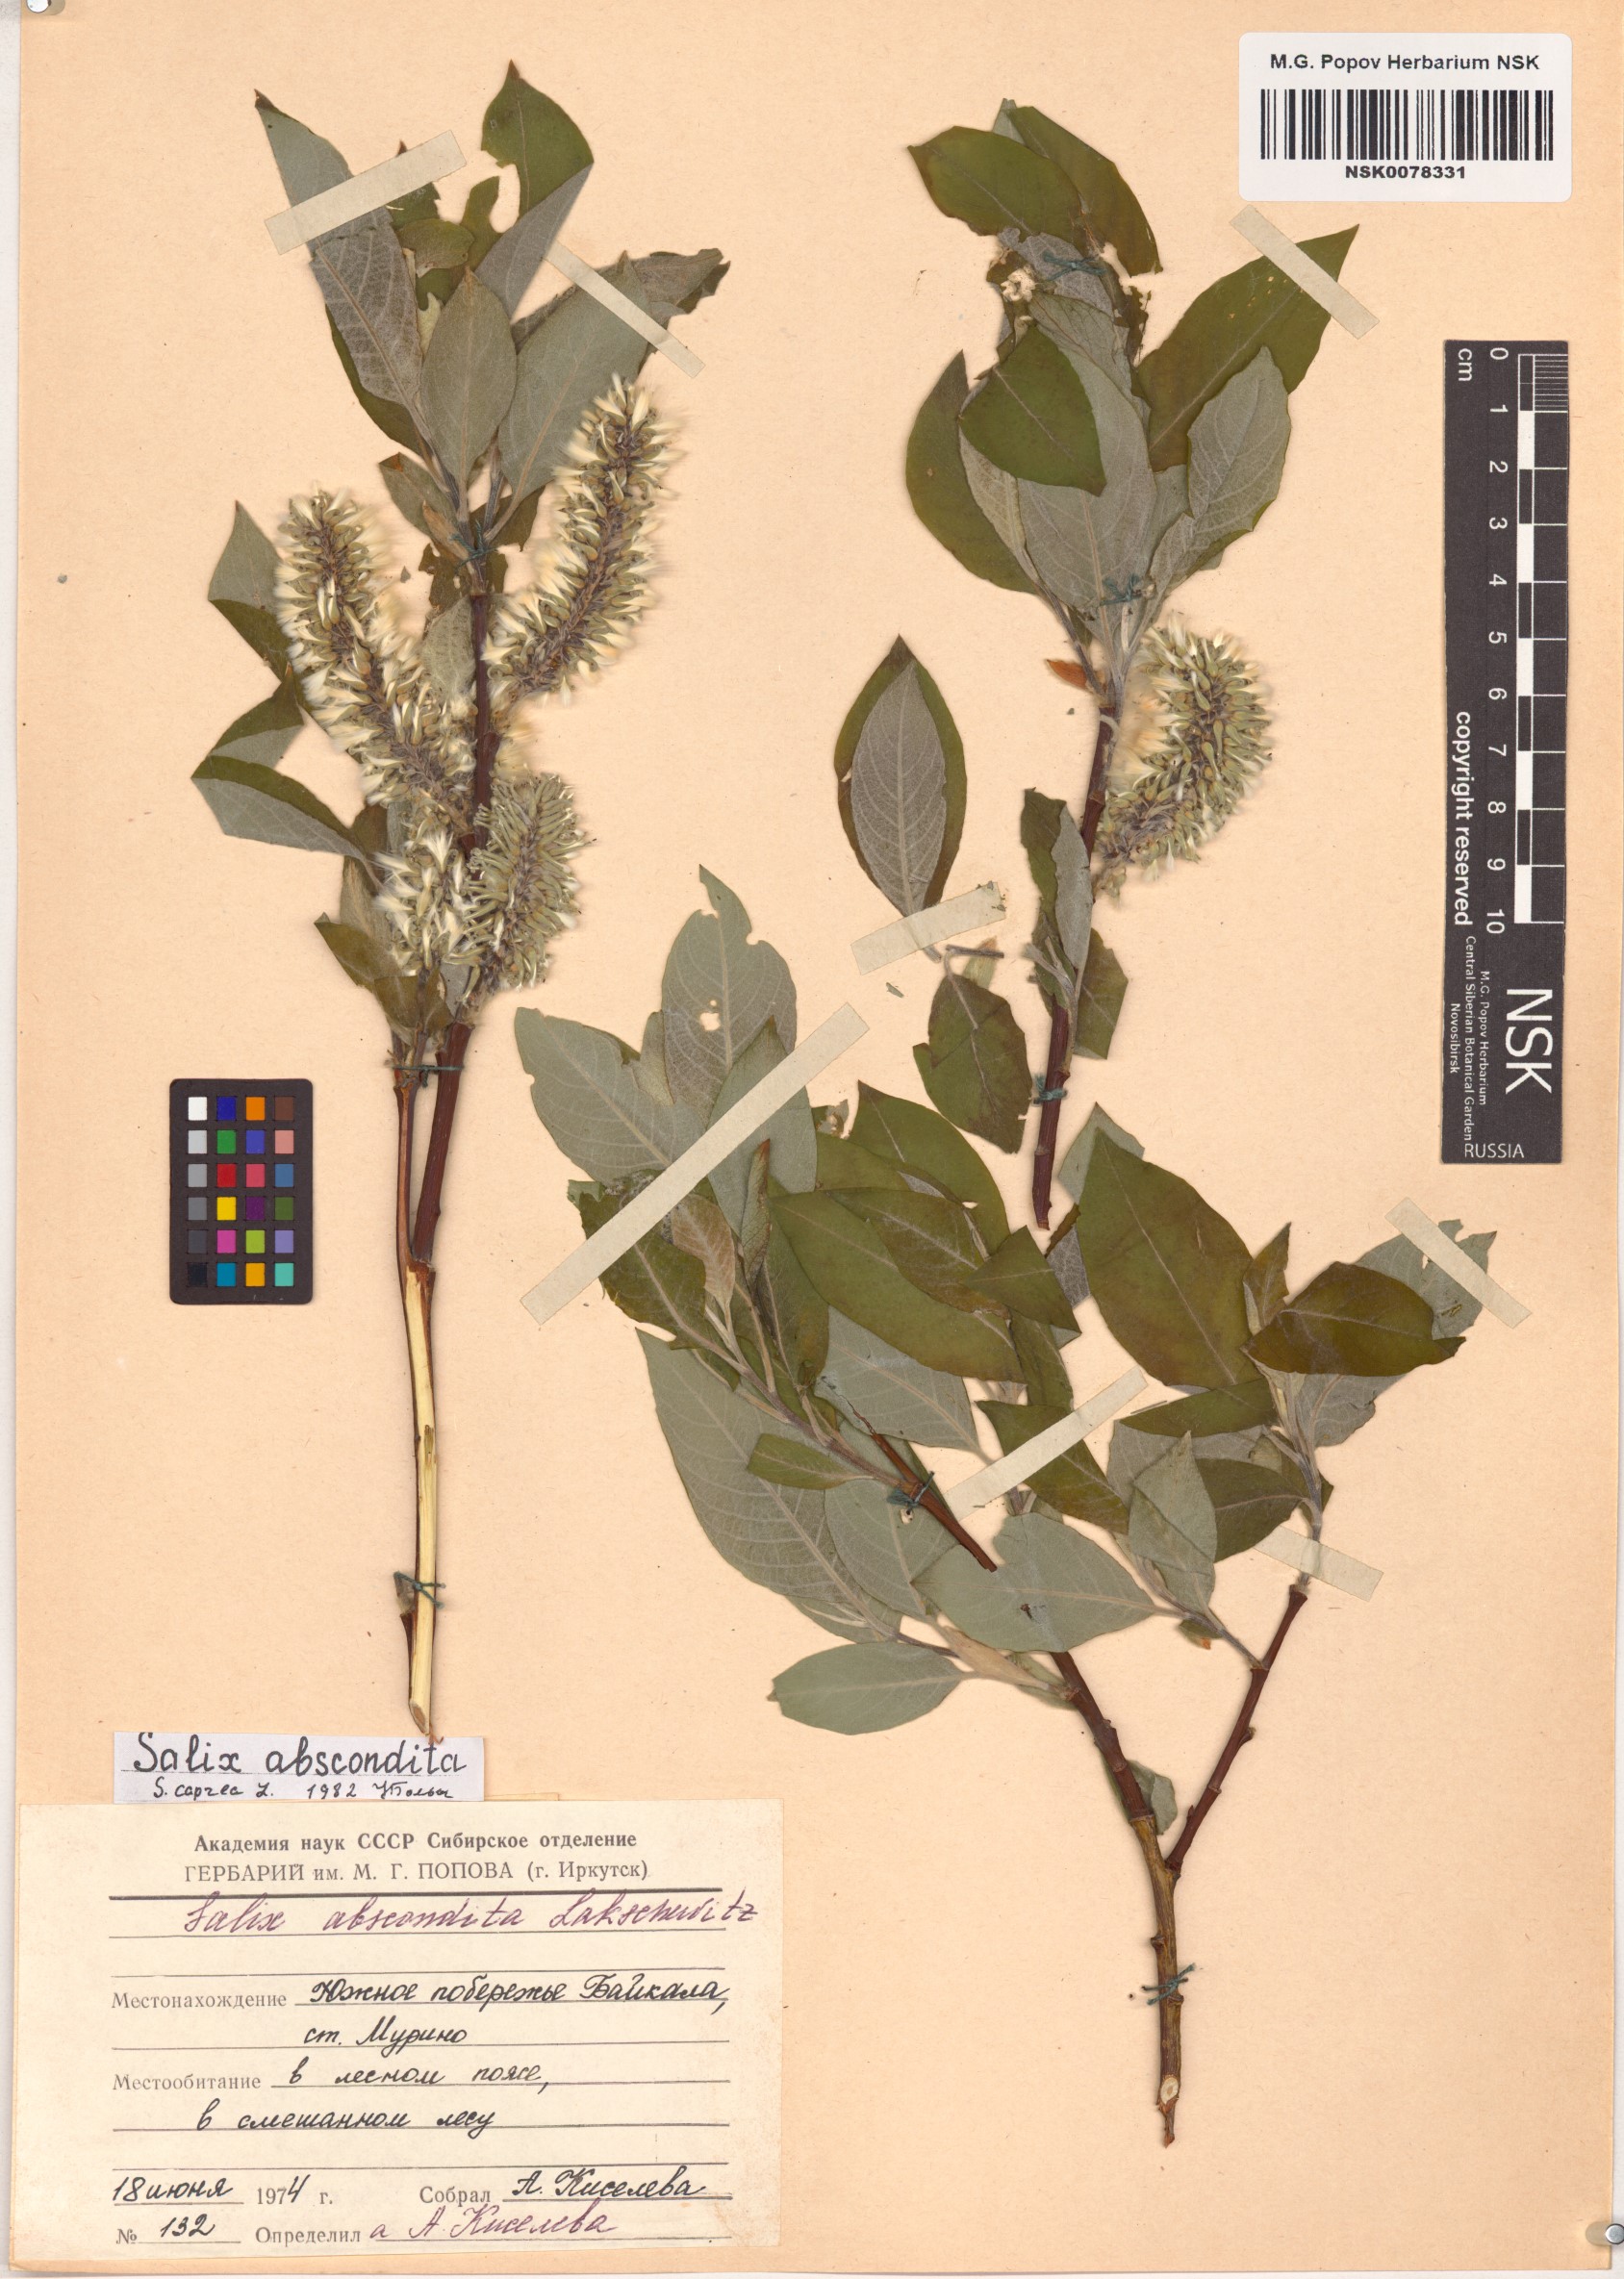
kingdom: Plantae
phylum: Tracheophyta
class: Magnoliopsida
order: Malpighiales
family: Salicaceae
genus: Salix
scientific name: Salix caprea
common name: Goat willow
